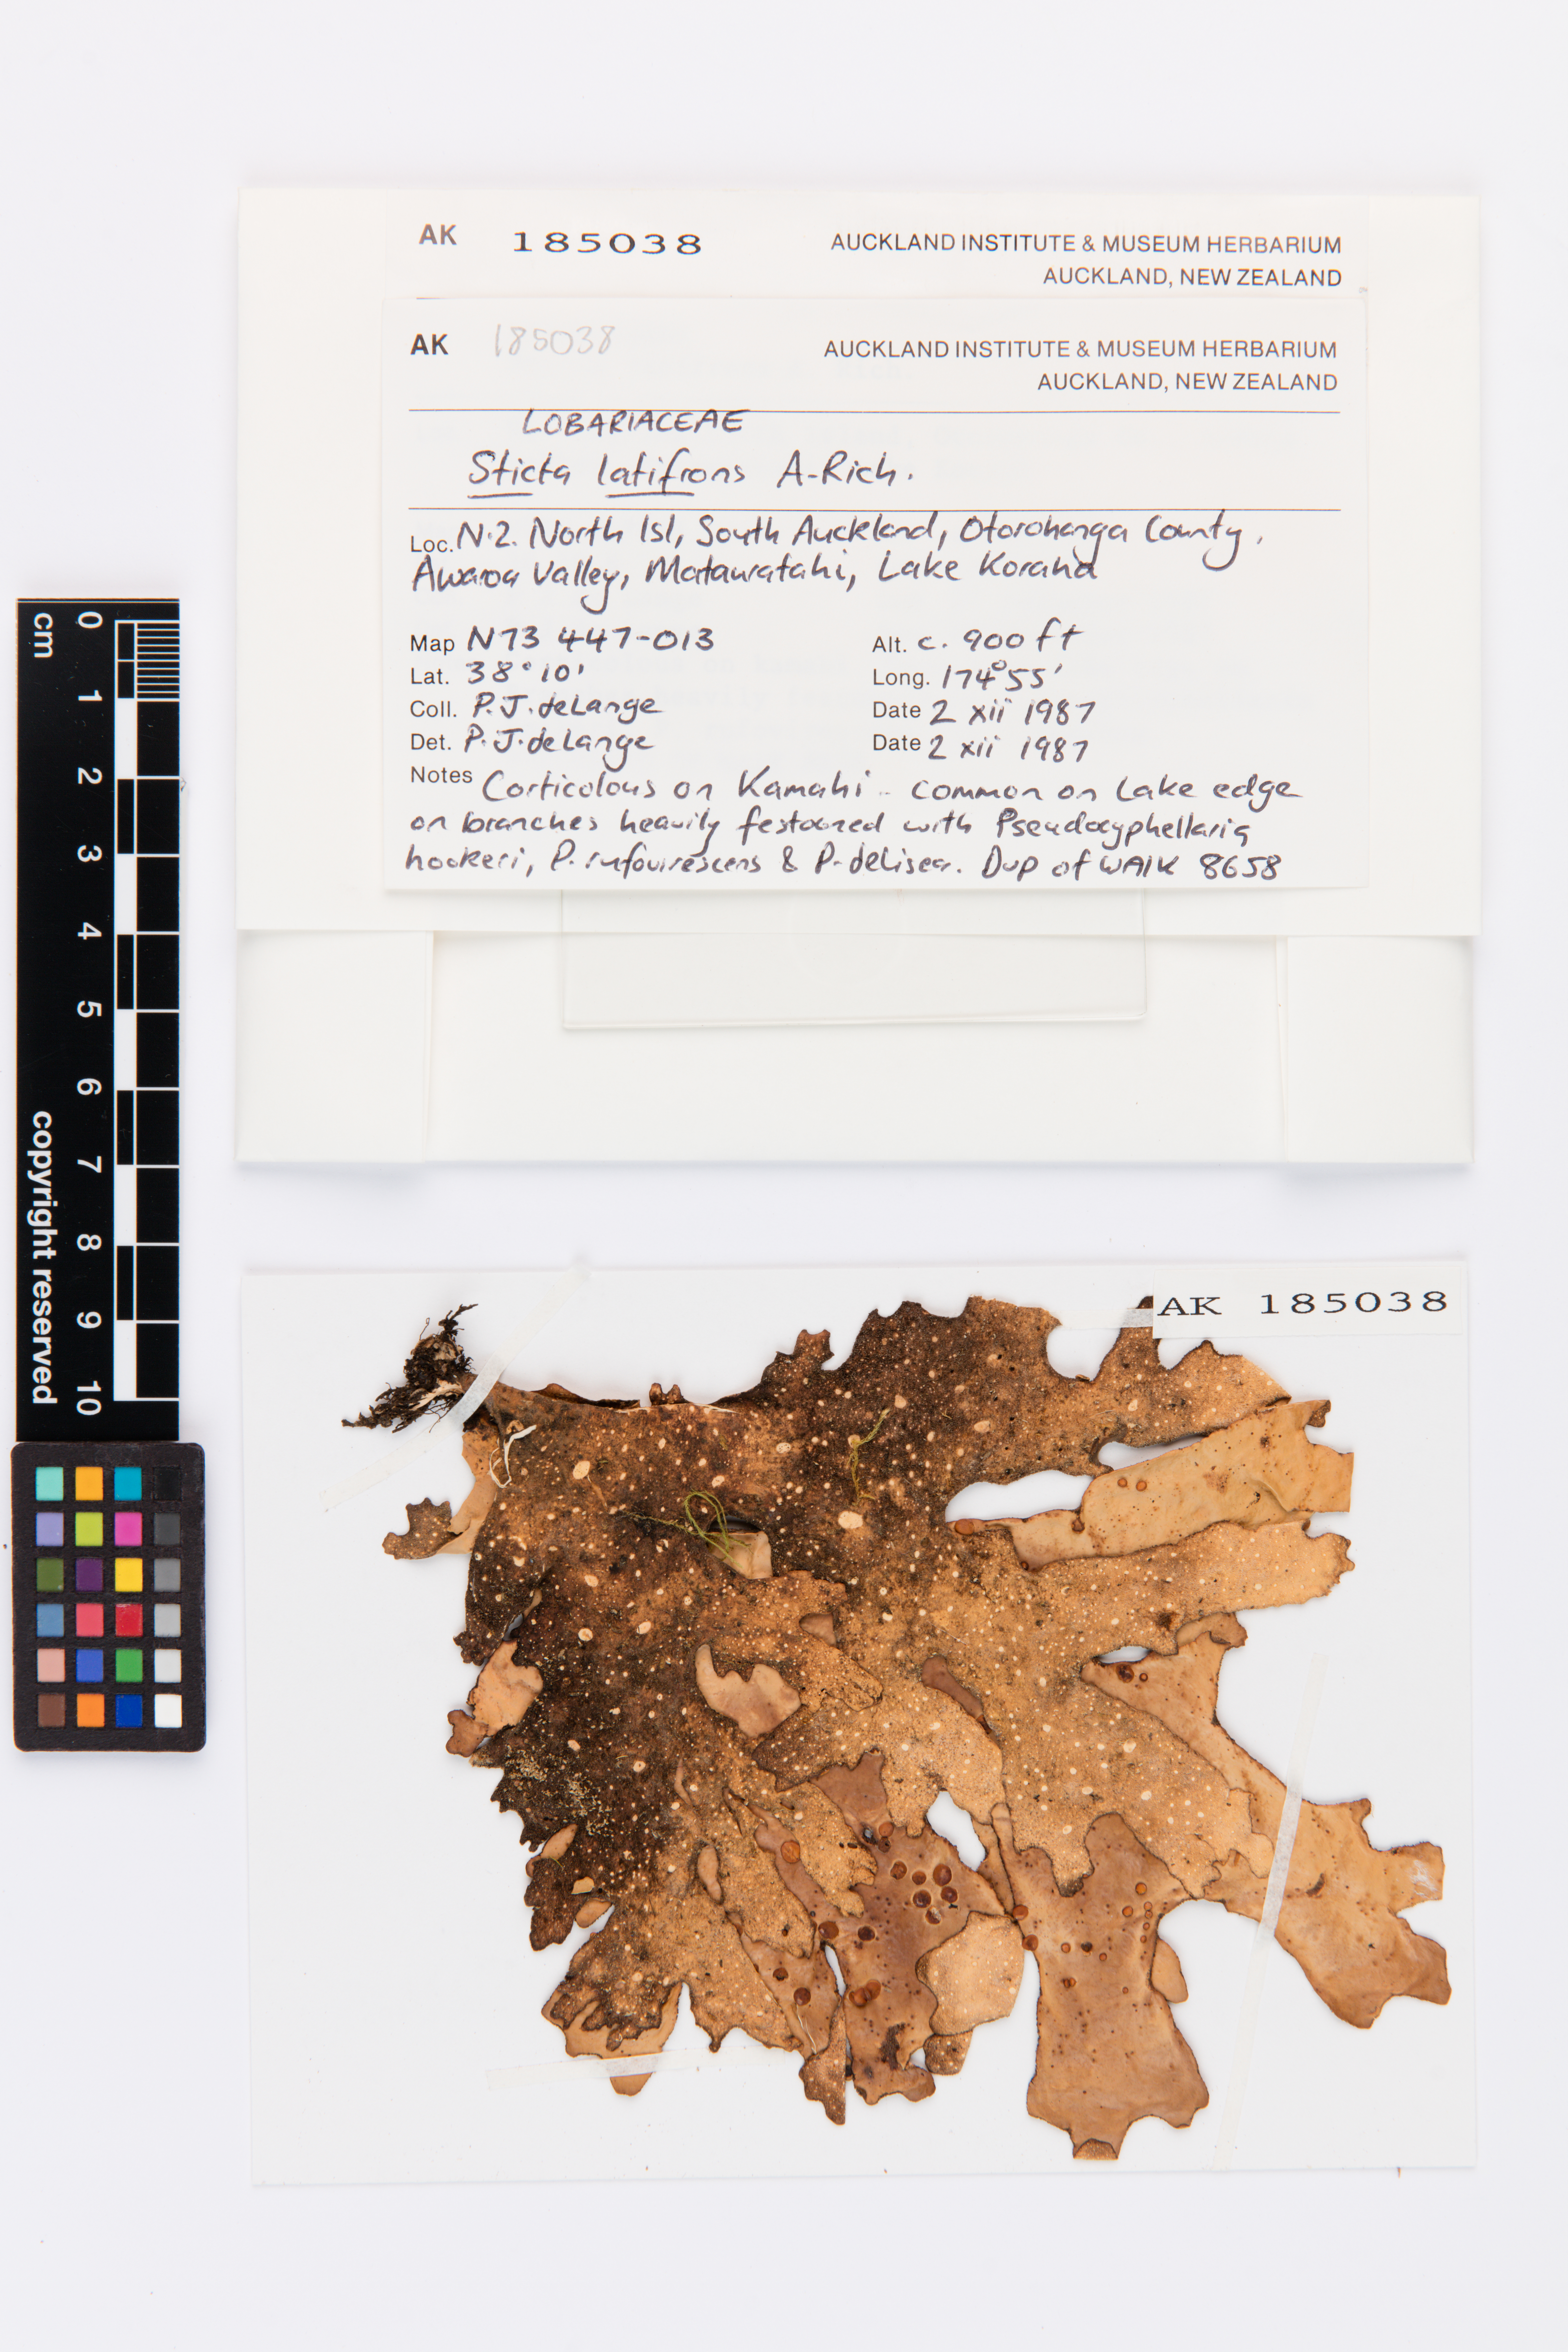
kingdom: Fungi
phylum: Ascomycota
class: Lecanoromycetes
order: Peltigerales
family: Lobariaceae
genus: Sticta
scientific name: Sticta latifrons
